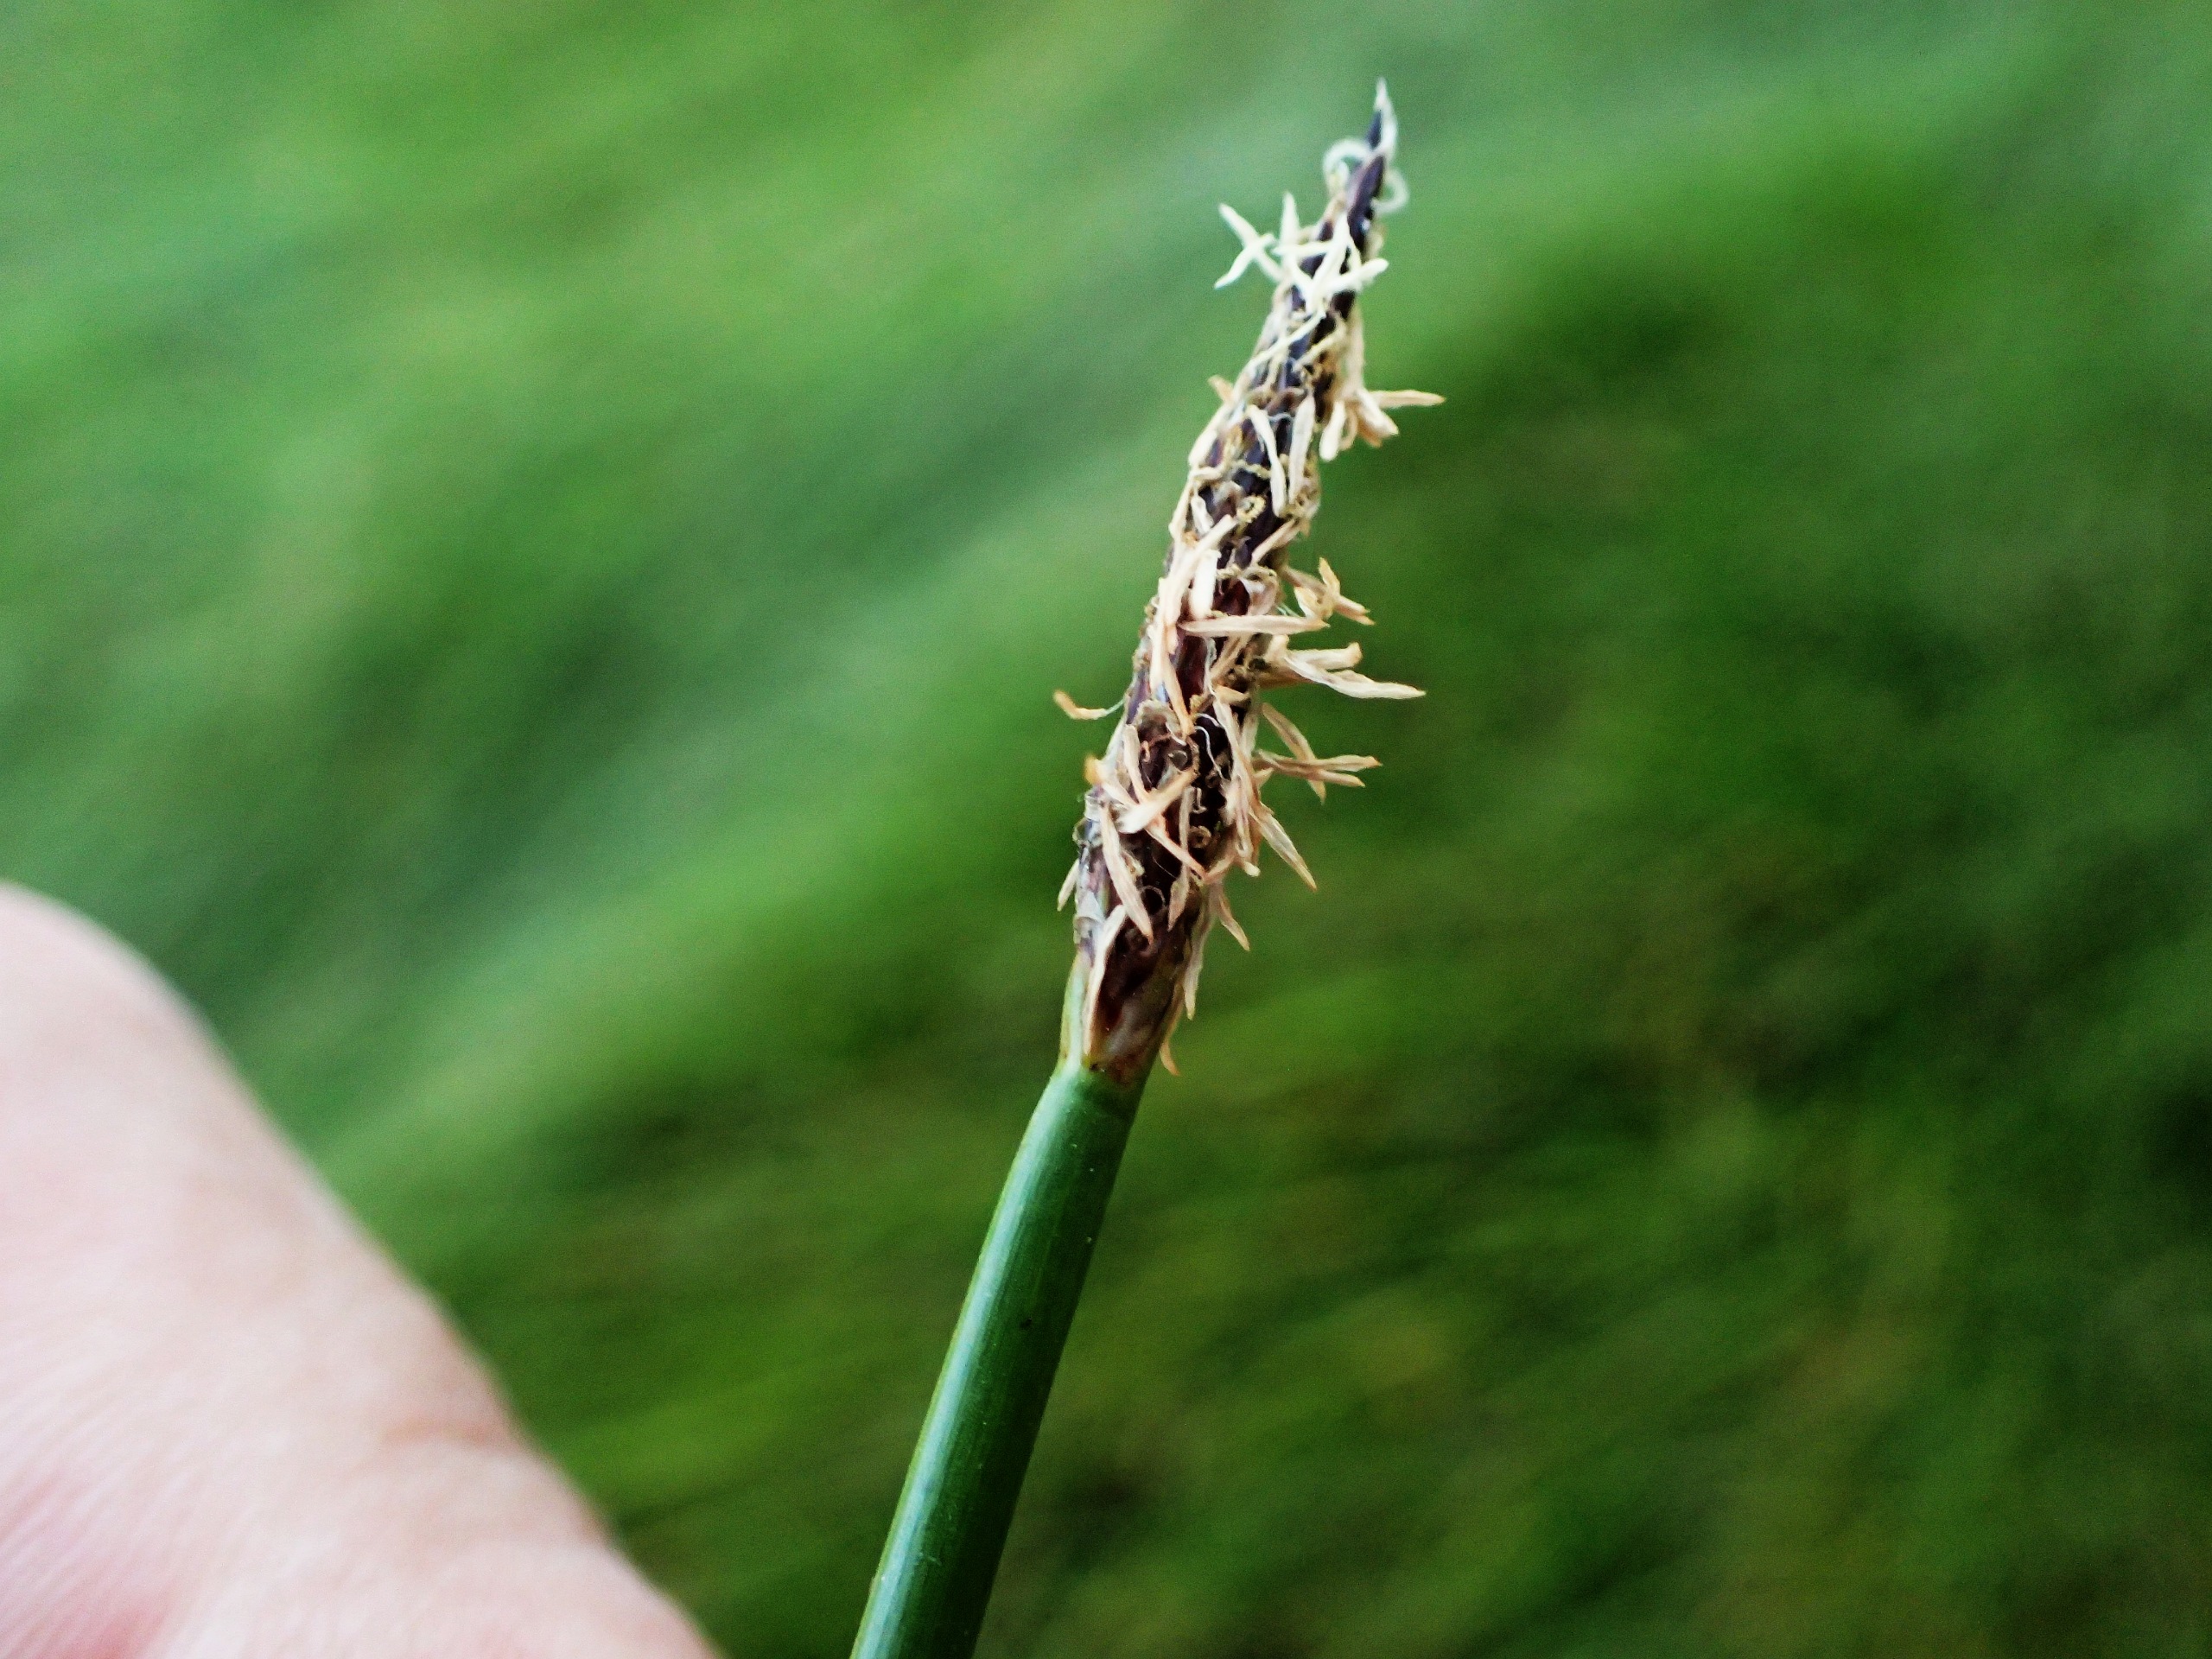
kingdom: Plantae
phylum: Tracheophyta
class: Liliopsida
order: Poales
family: Cyperaceae
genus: Eleocharis
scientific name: Eleocharis palustris
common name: Almindelig sumpstrå
